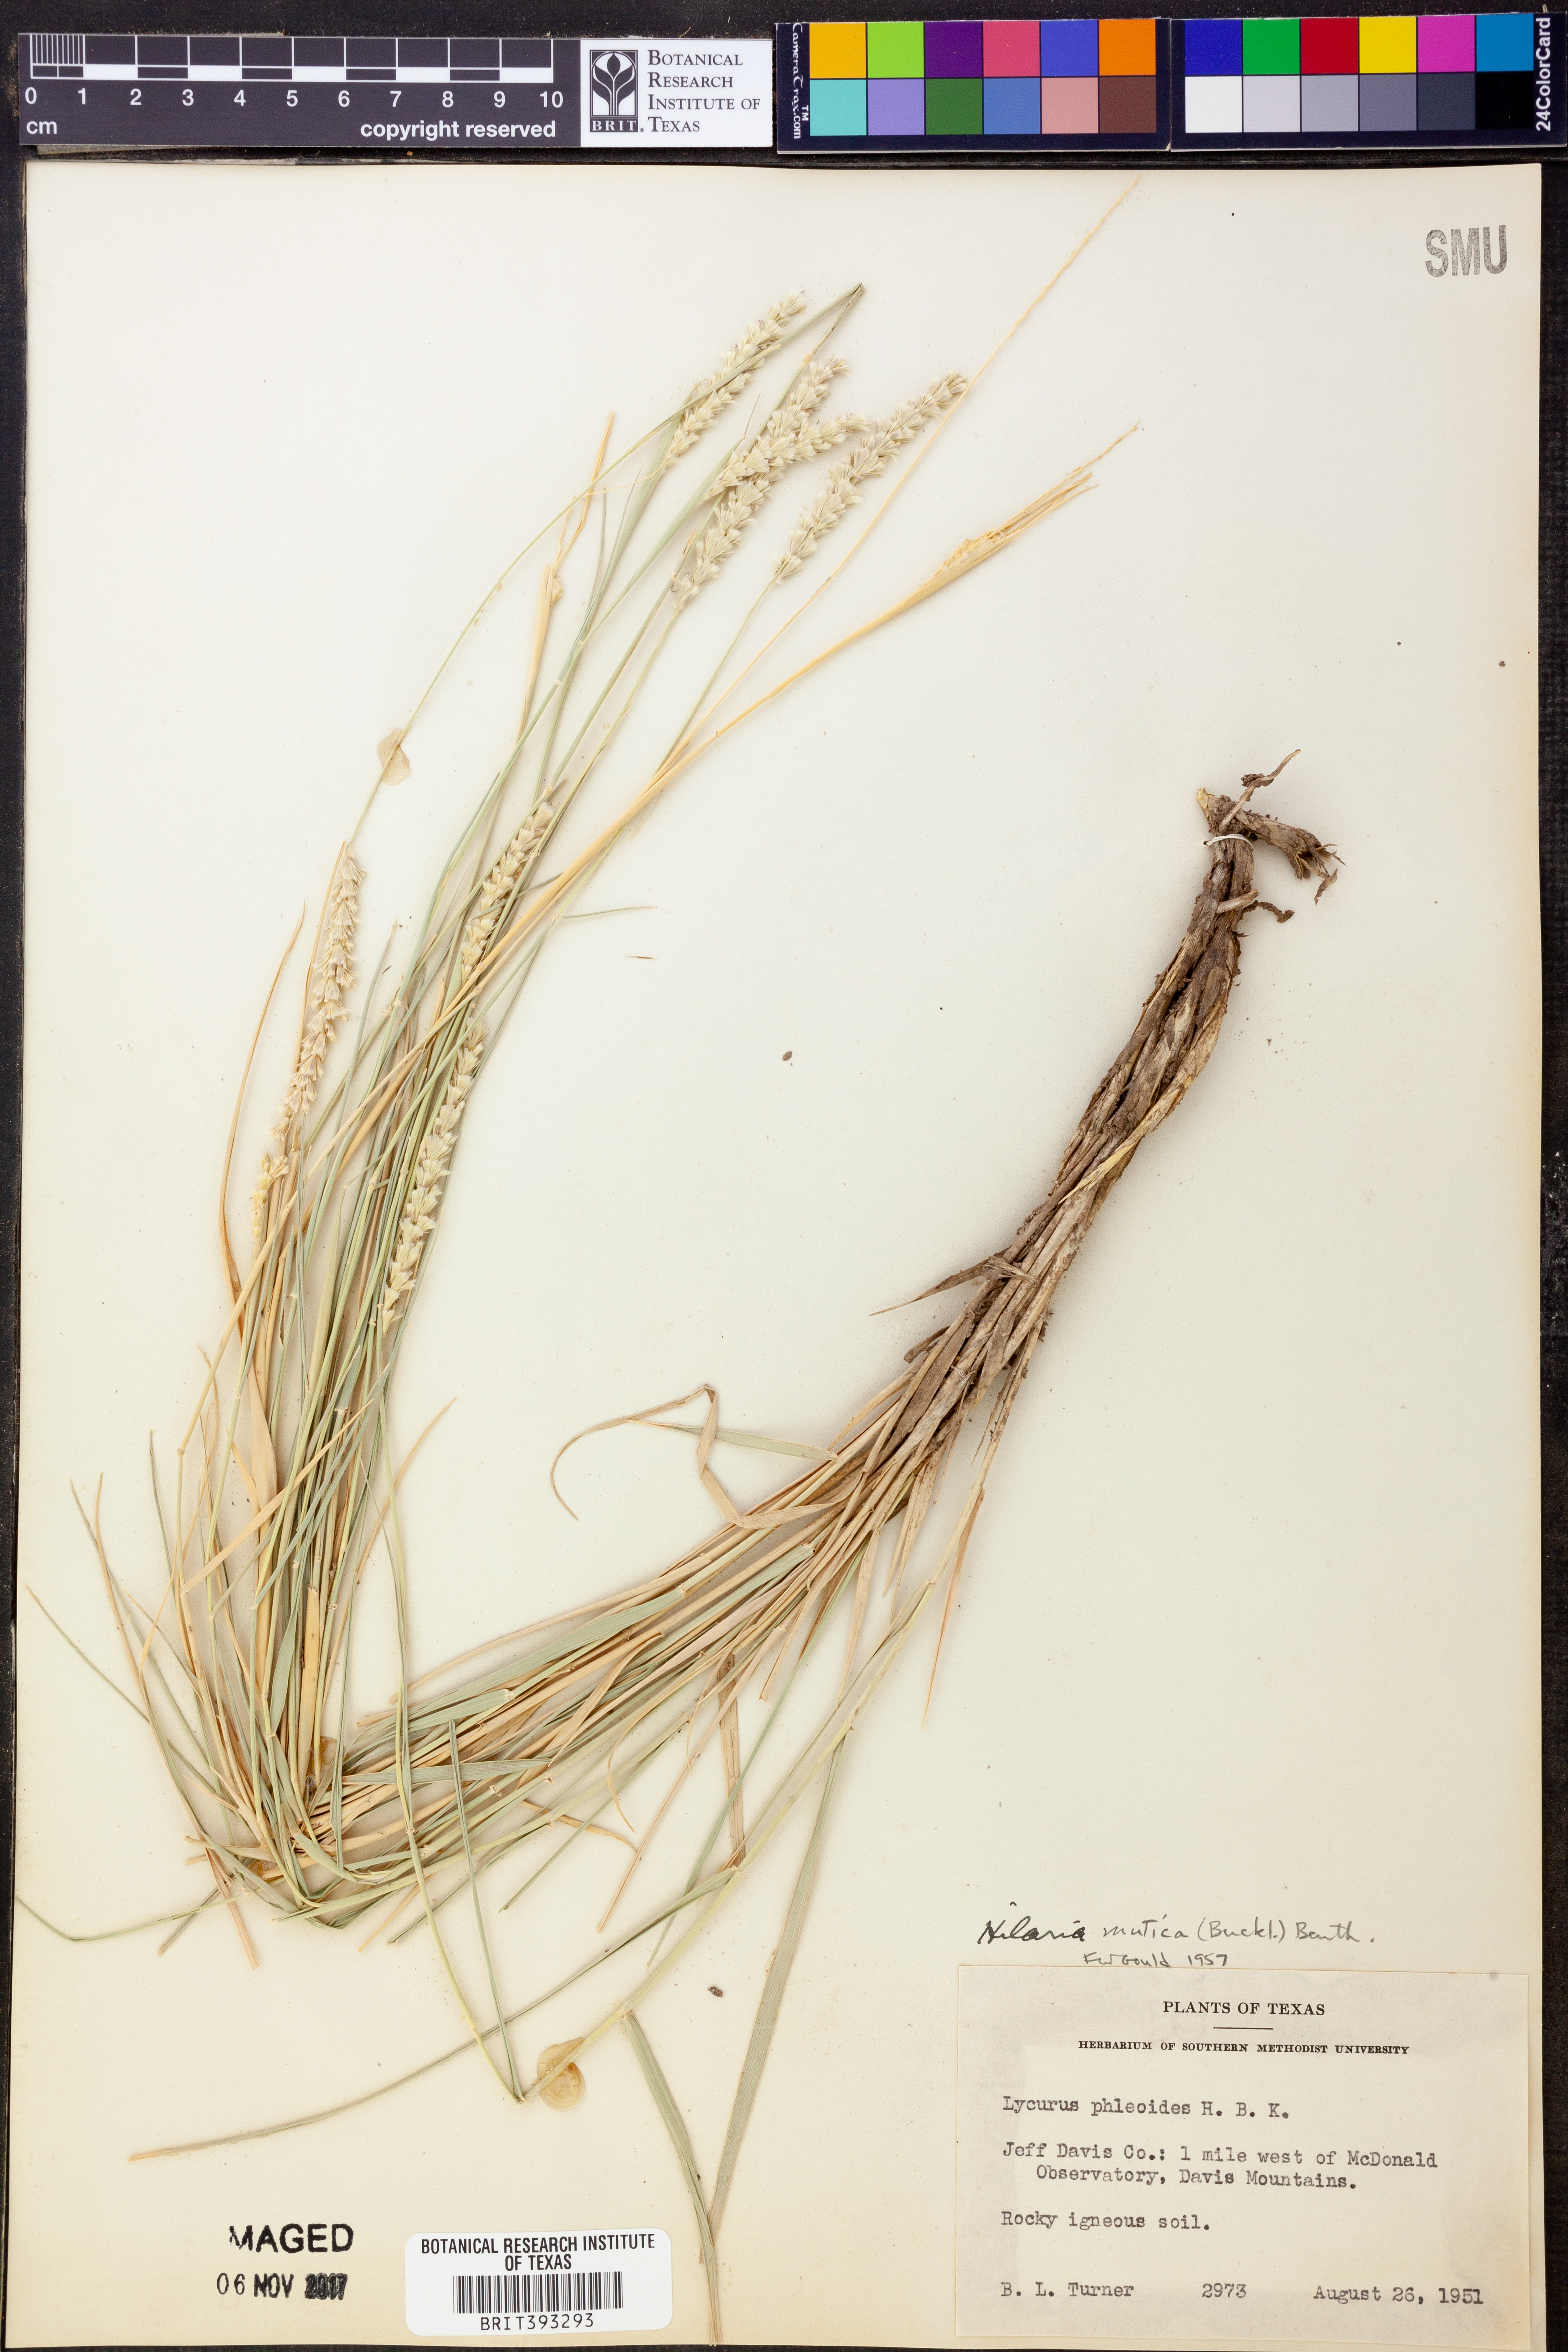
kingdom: Plantae
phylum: Tracheophyta
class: Liliopsida
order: Poales
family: Poaceae
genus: Hilaria
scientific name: Hilaria mutica
